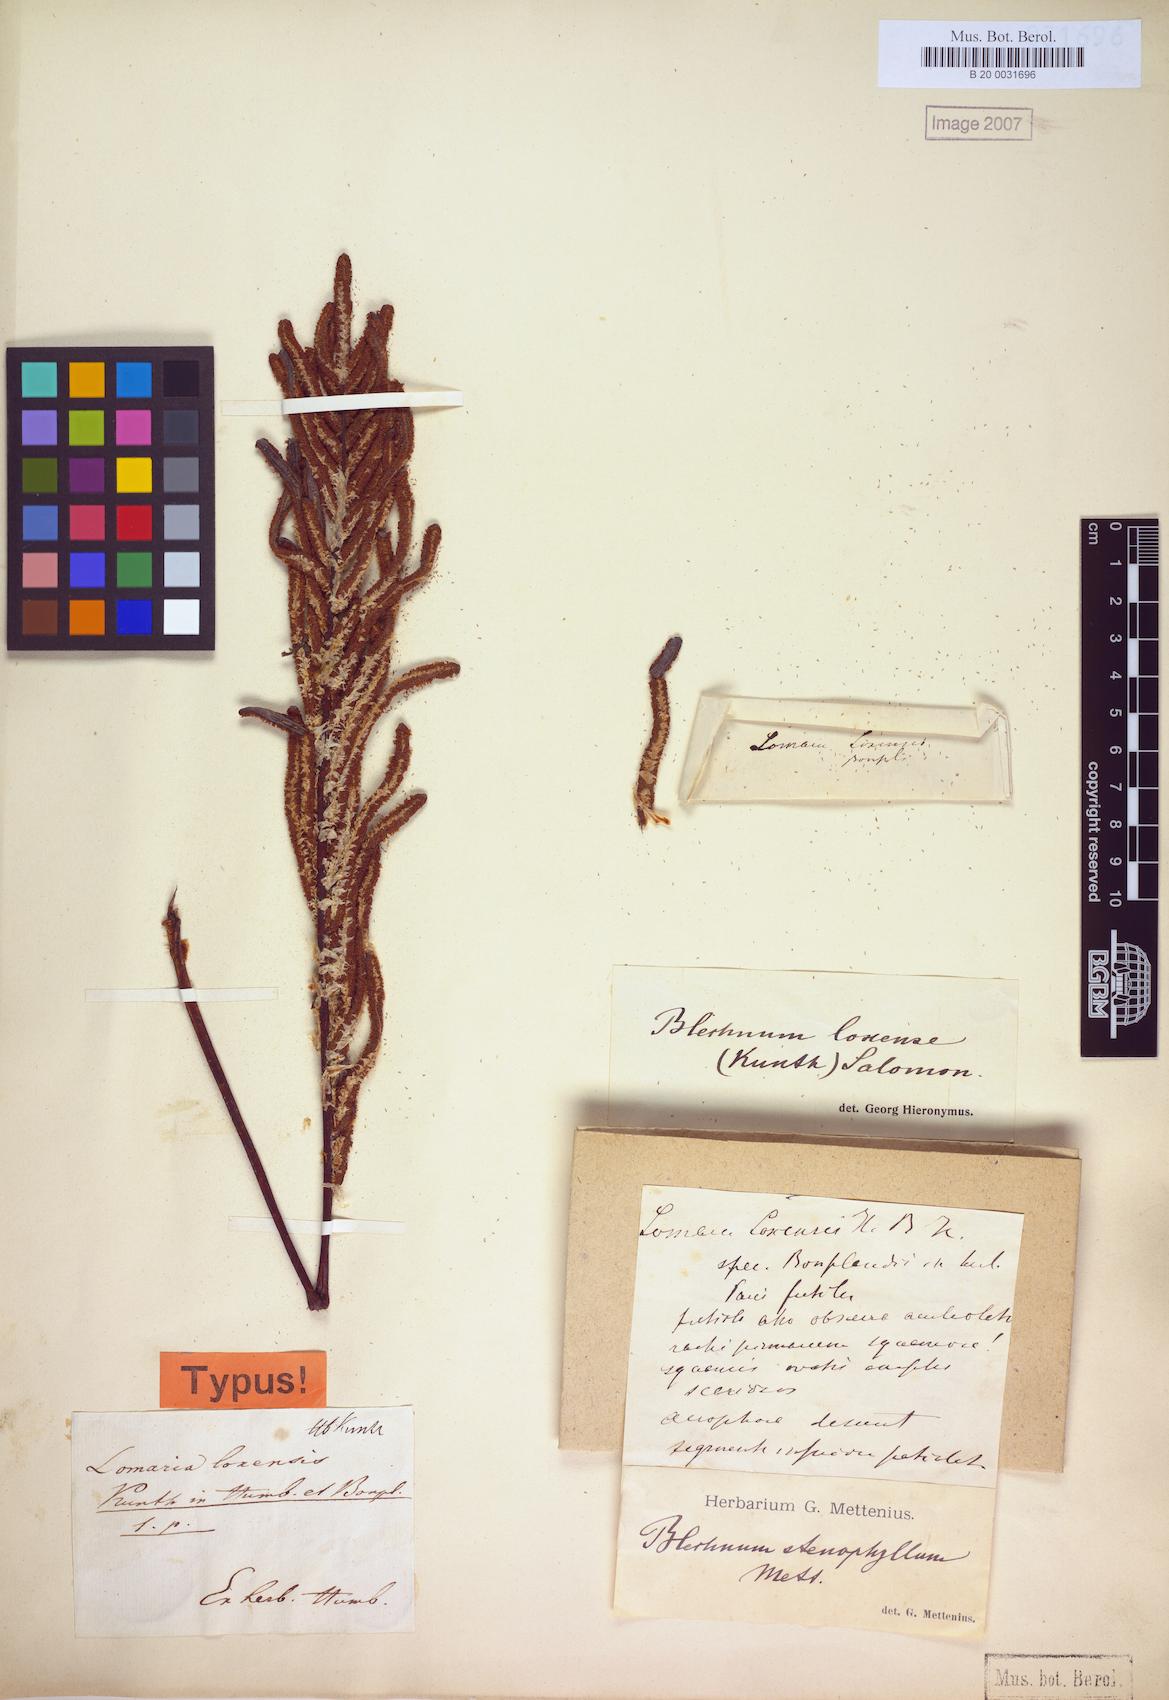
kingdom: Plantae
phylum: Tracheophyta
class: Polypodiopsida
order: Polypodiales
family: Blechnaceae
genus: Parablechnum
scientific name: Parablechnum loxense
